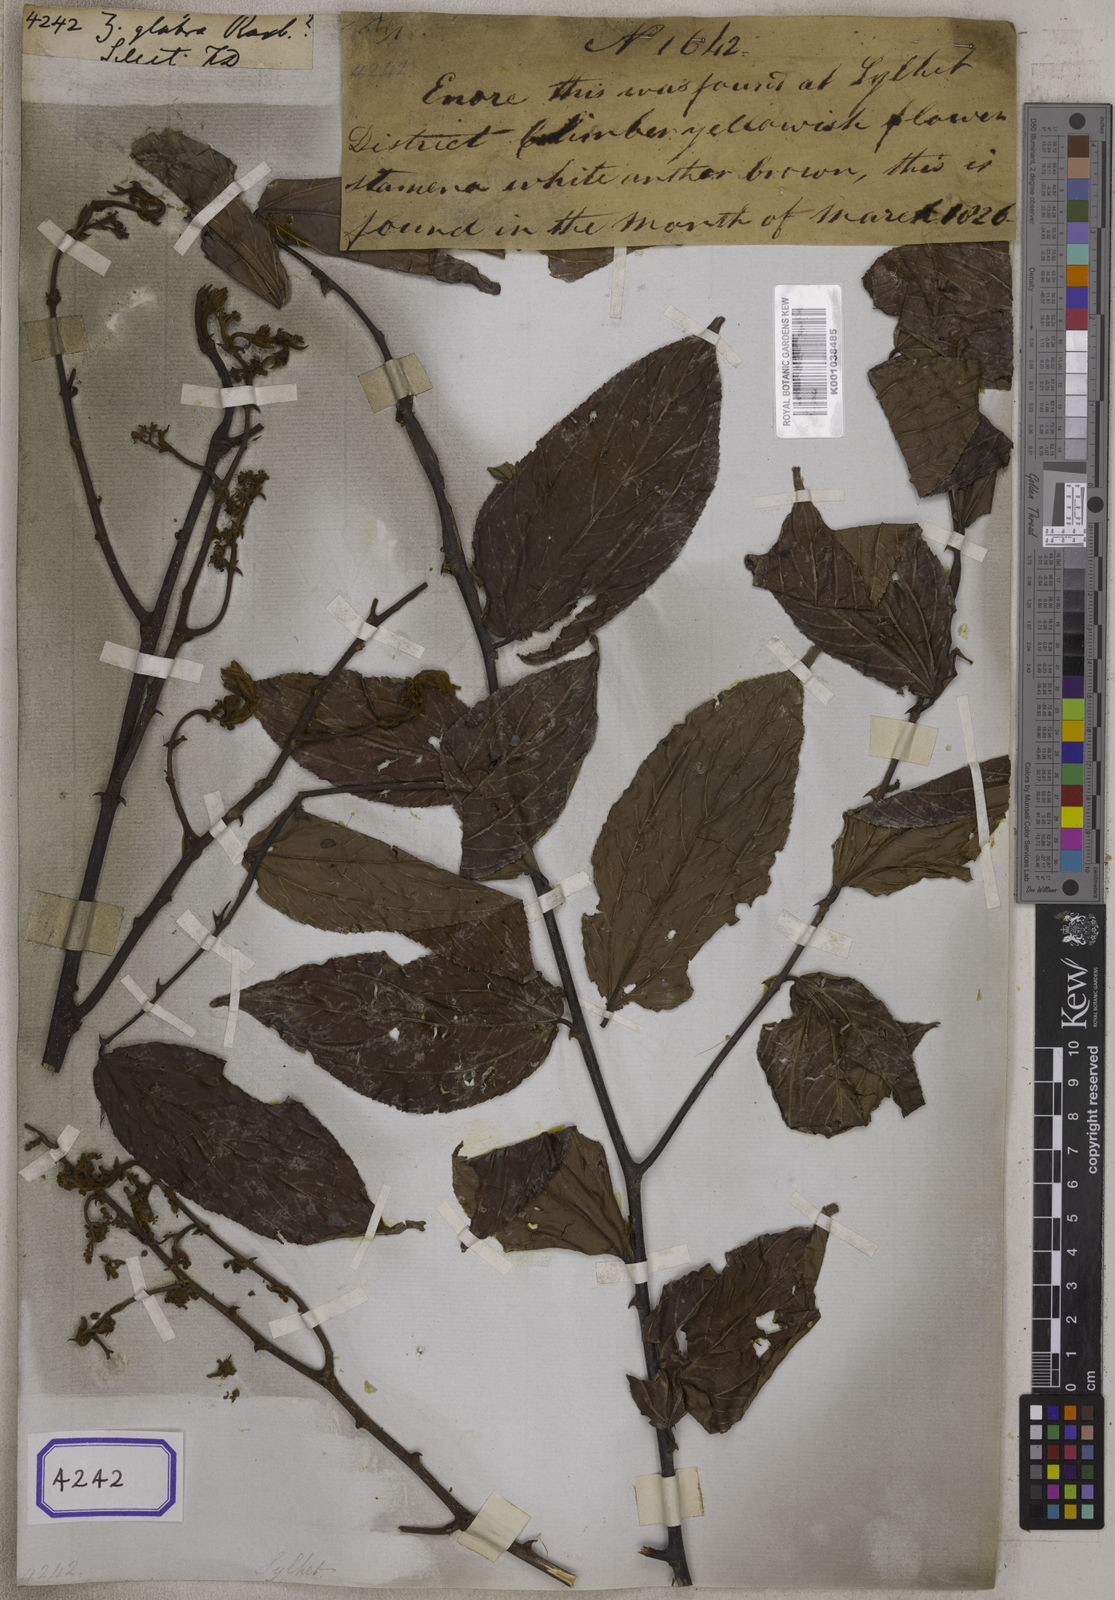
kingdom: Plantae
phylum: Tracheophyta
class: Magnoliopsida
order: Rosales
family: Rhamnaceae
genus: Ziziphus
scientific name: Ziziphus rugosa
